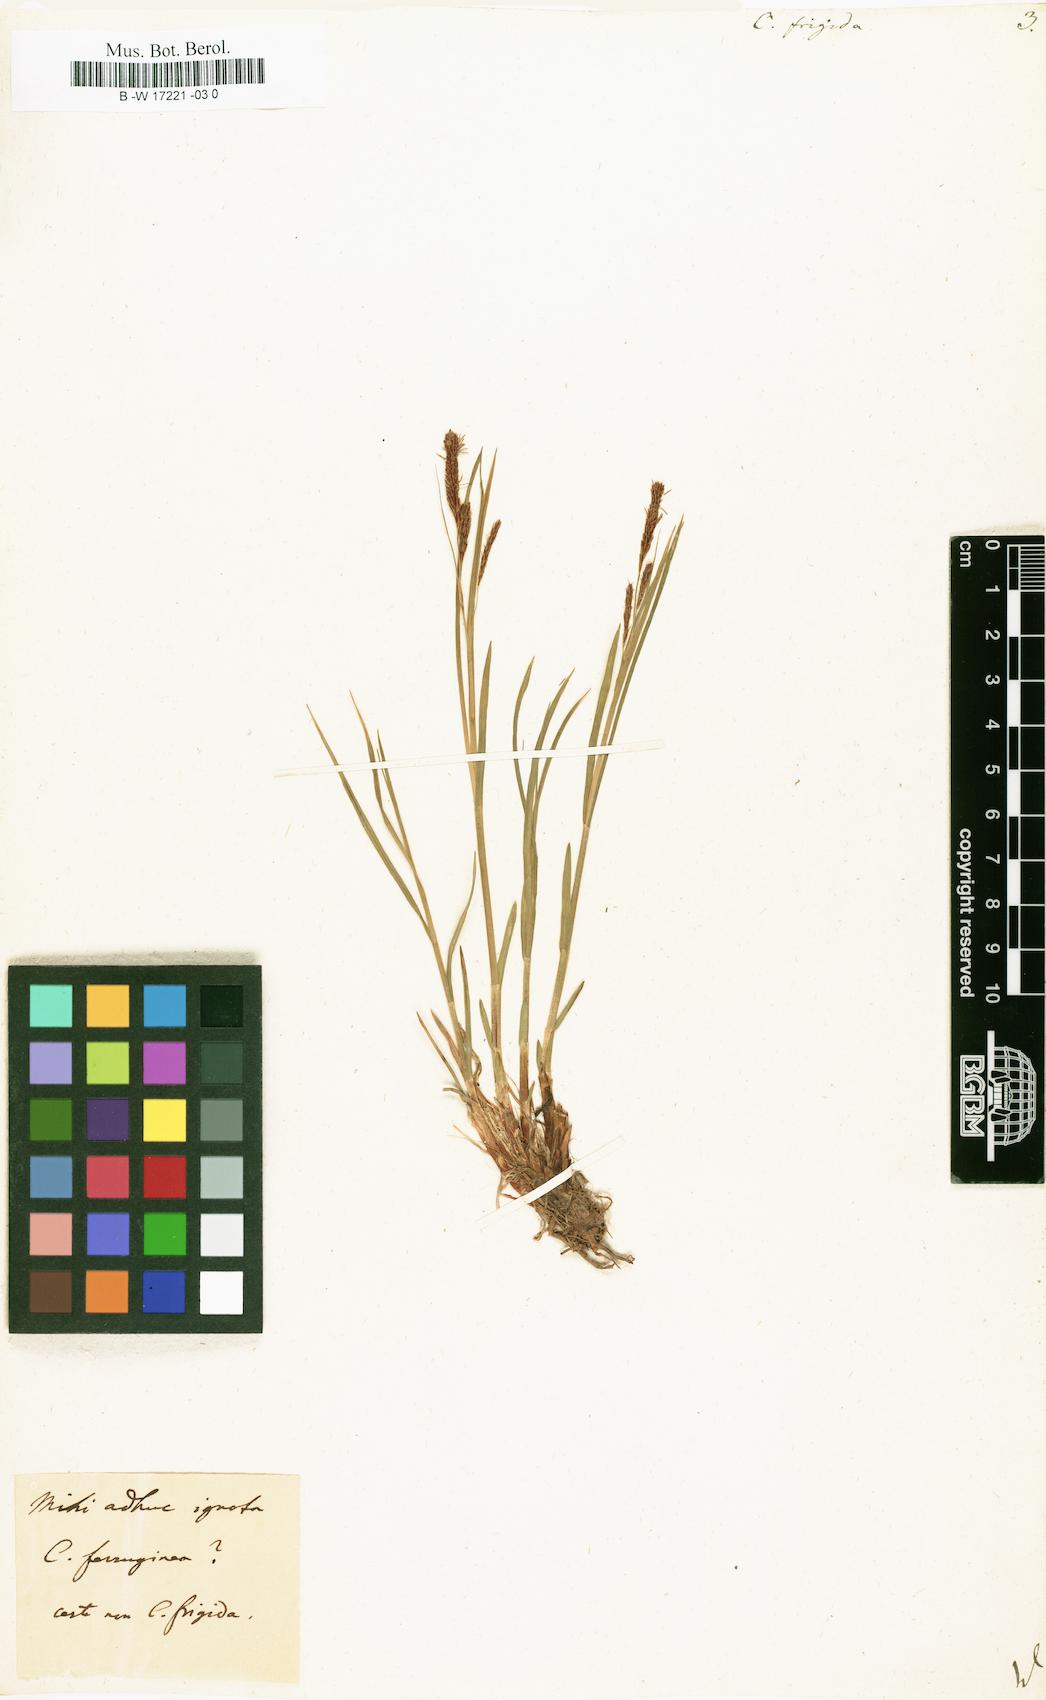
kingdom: Plantae
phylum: Tracheophyta
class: Liliopsida
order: Poales
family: Cyperaceae
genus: Carex
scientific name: Carex frigida
